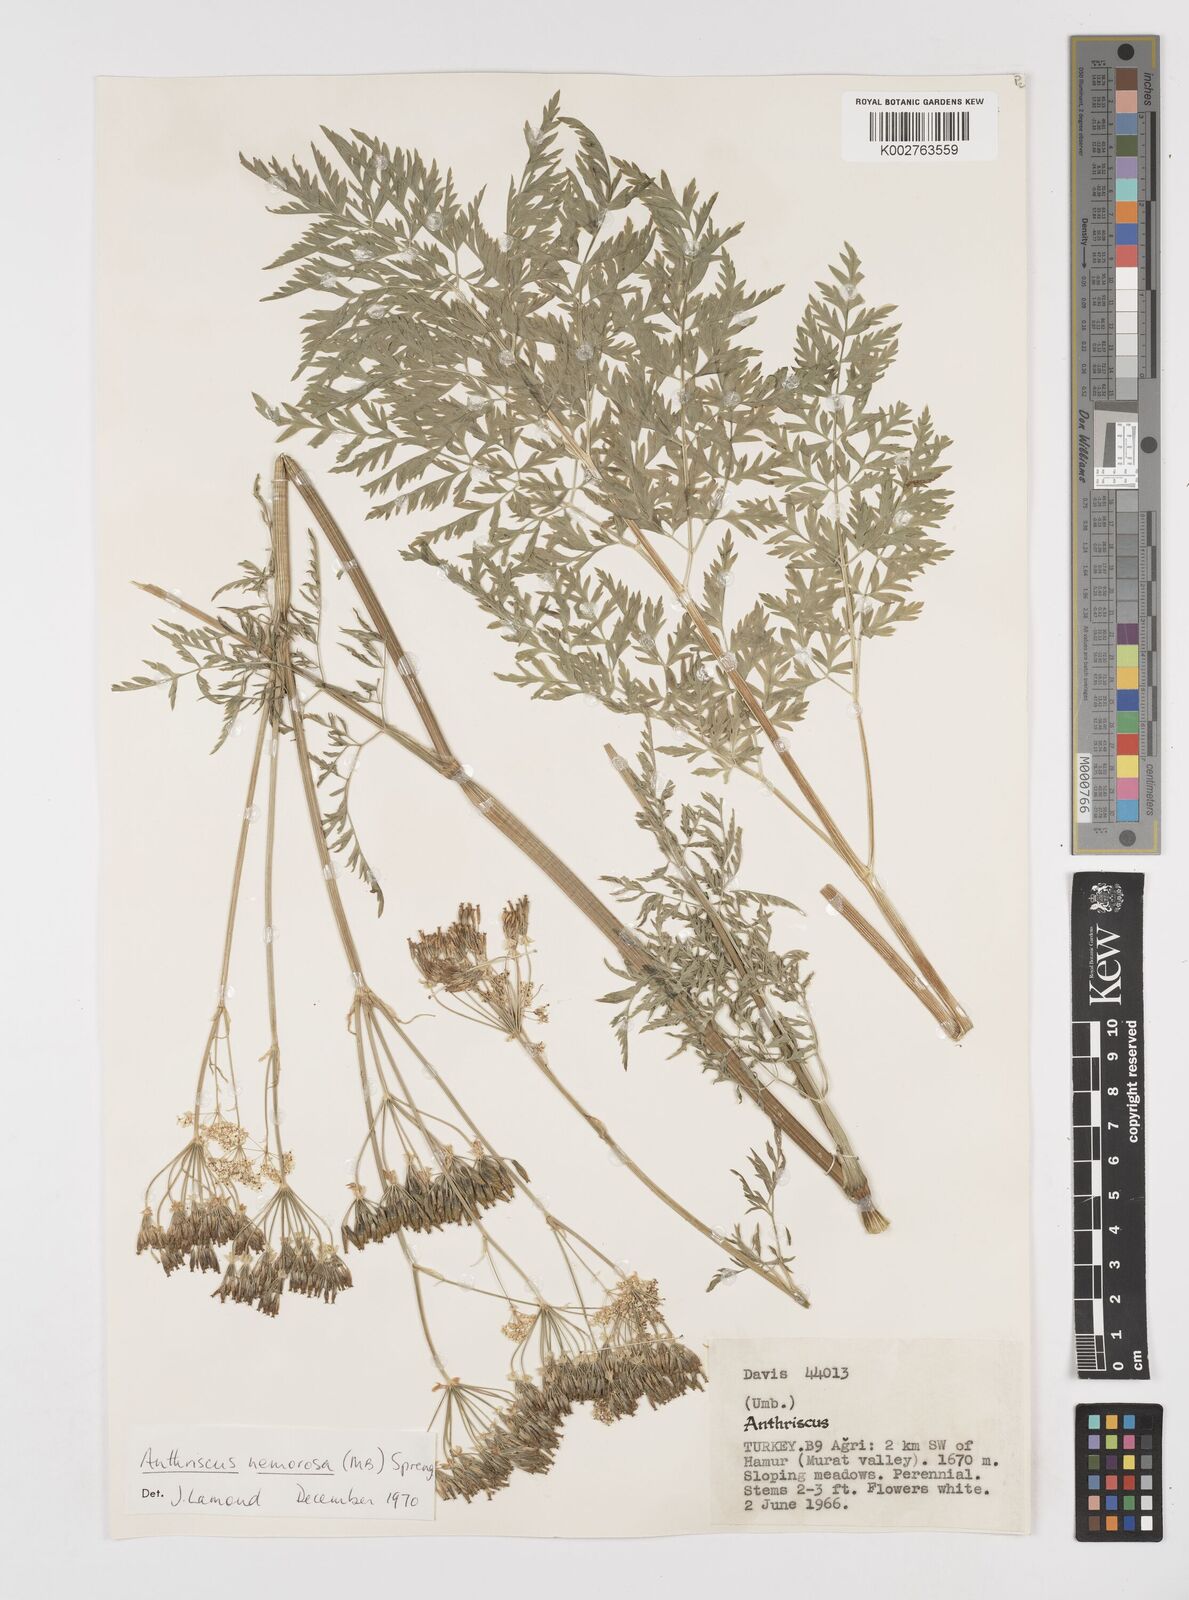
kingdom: Plantae
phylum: Tracheophyta
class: Magnoliopsida
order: Apiales
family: Apiaceae
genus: Anthriscus
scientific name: Anthriscus sylvestris
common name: Cow parsley
